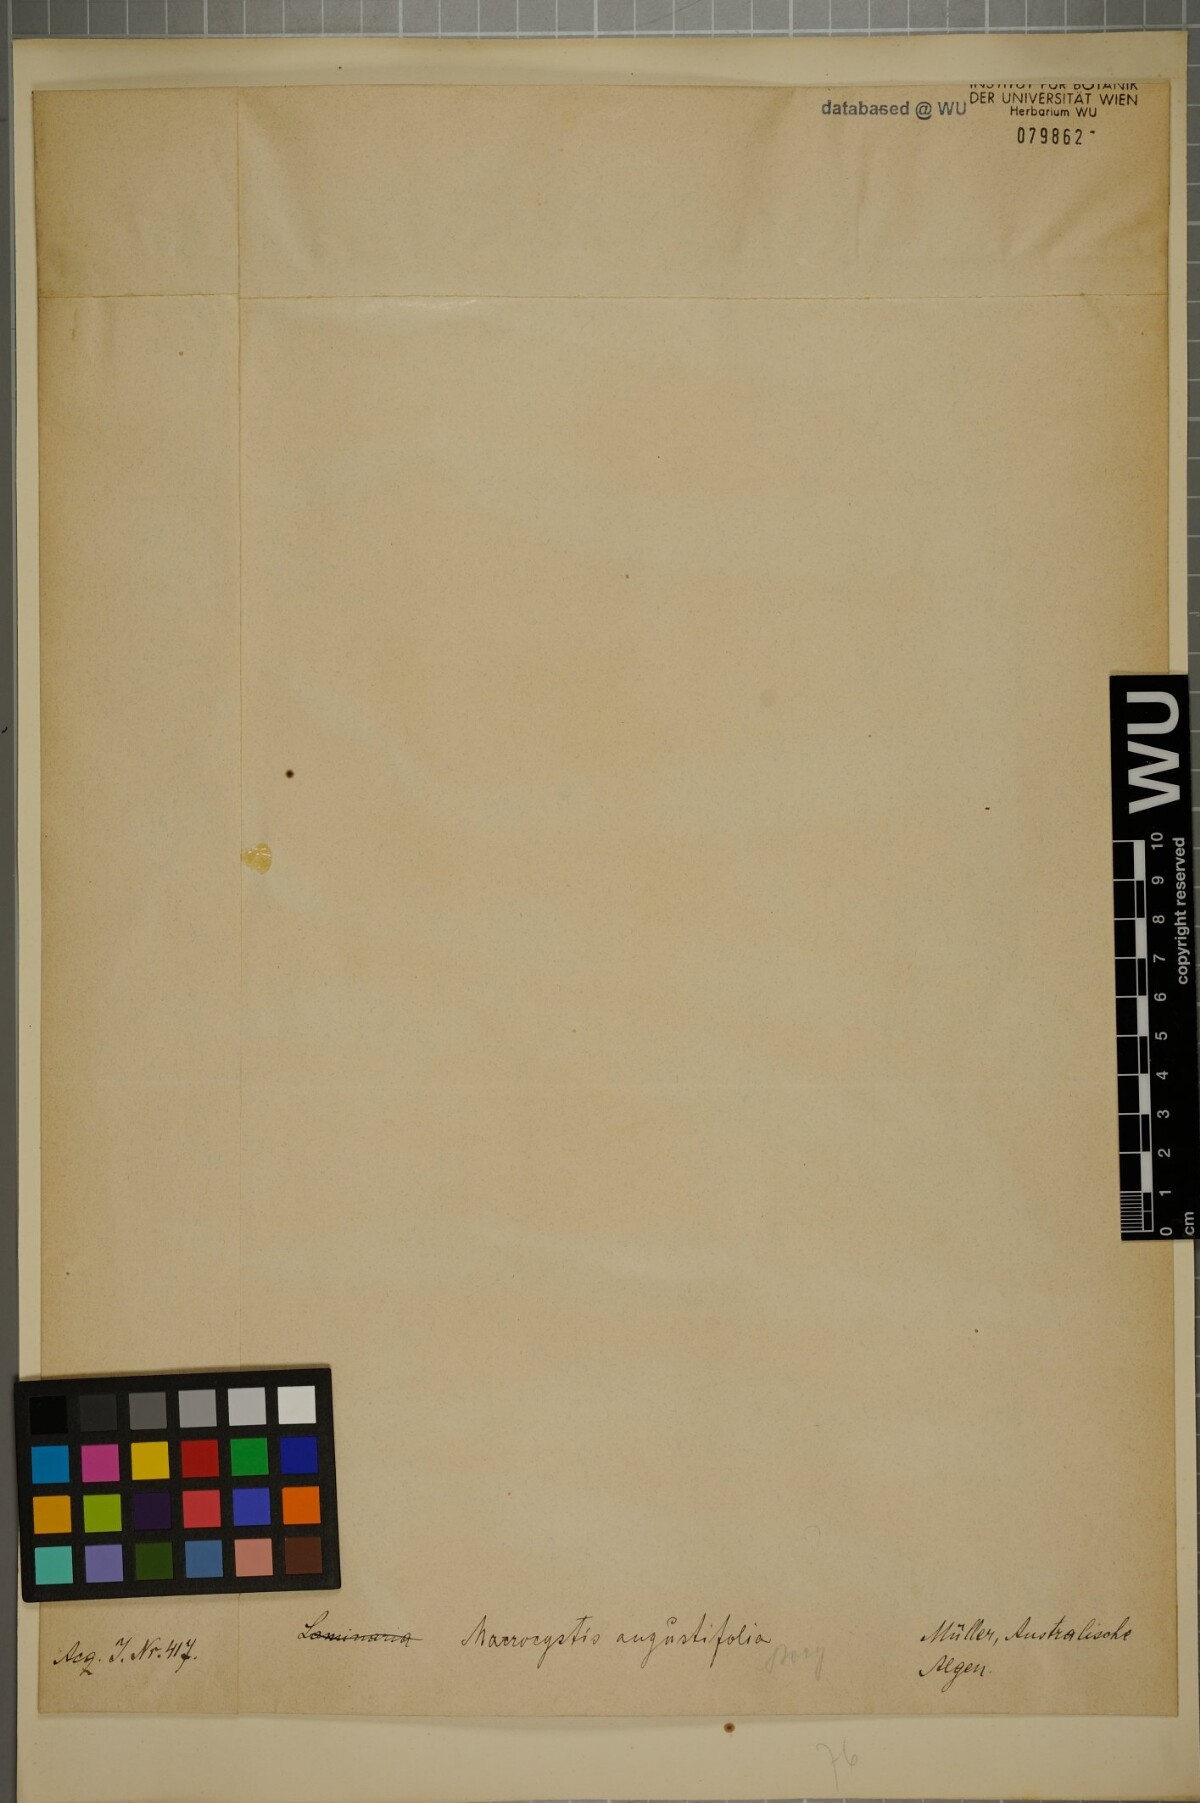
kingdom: Chromista
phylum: Ochrophyta
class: Phaeophyceae
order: Laminariales
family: Laminariaceae
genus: Macrocystis
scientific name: Macrocystis angustifolia
